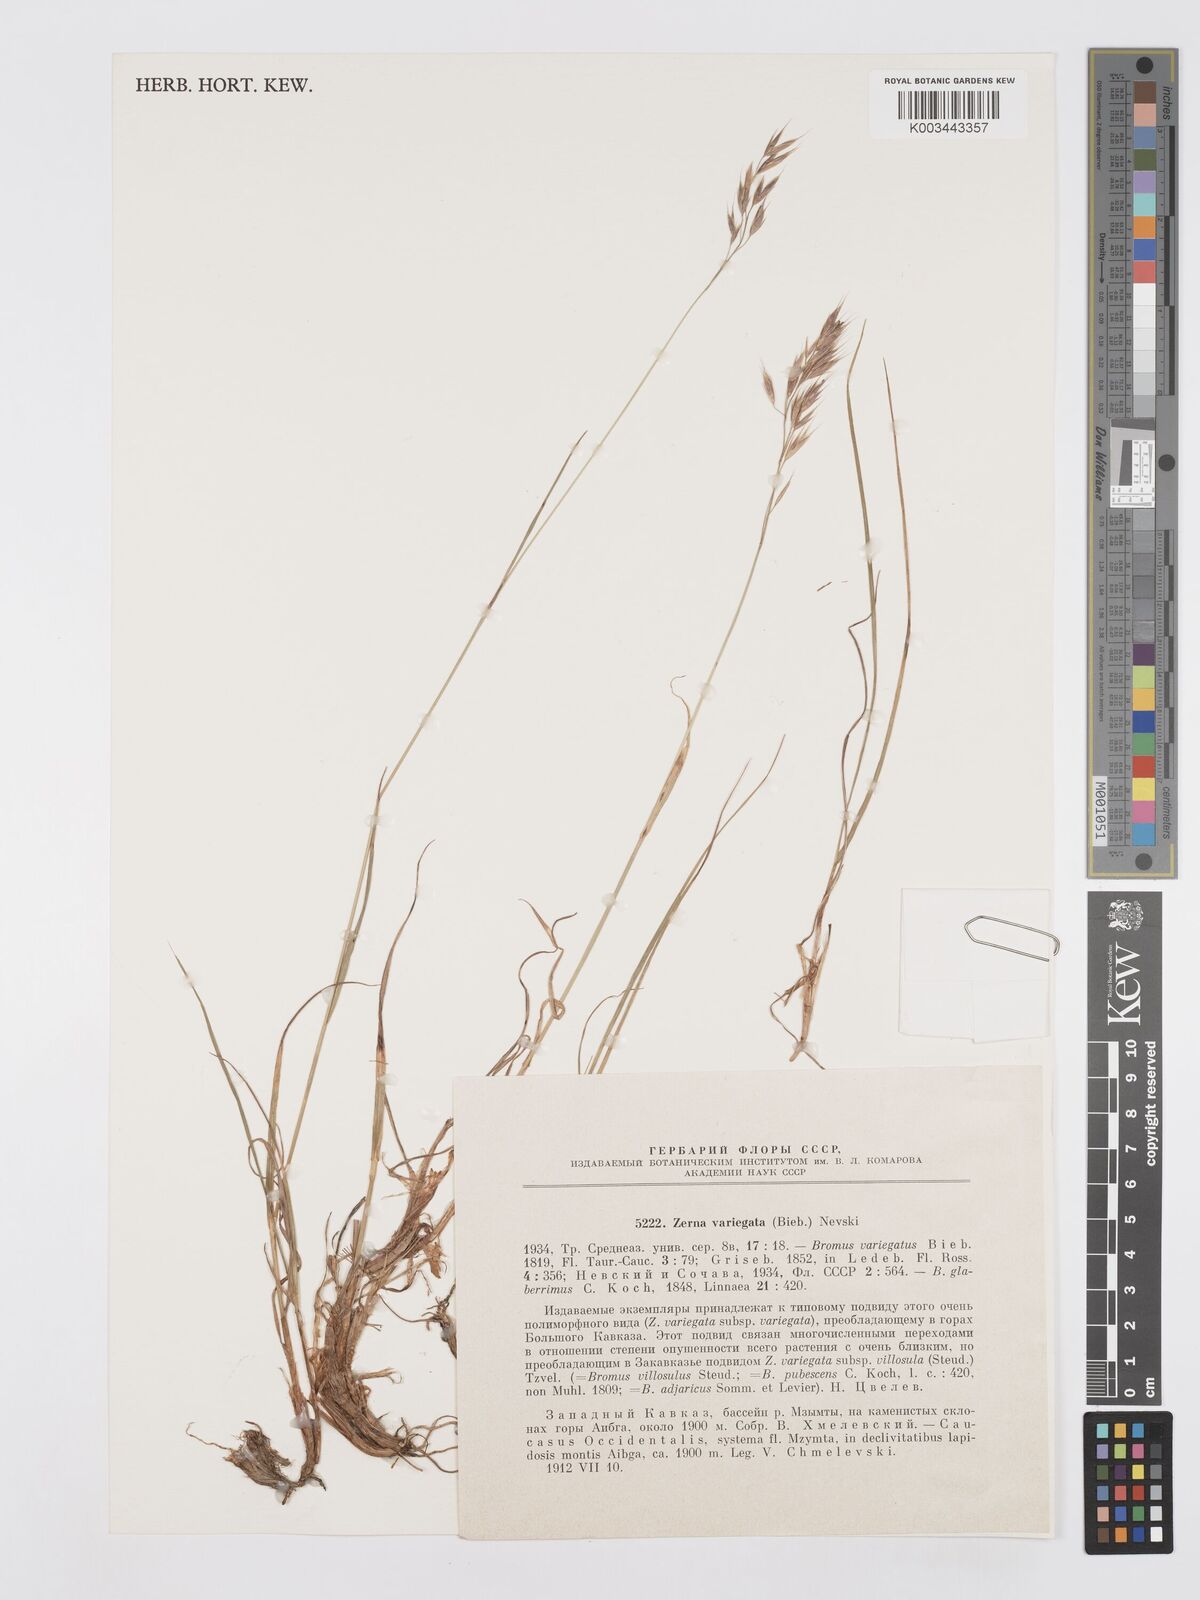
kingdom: Plantae
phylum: Tracheophyta
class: Liliopsida
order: Poales
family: Poaceae
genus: Bromus
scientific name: Bromus variegatus
